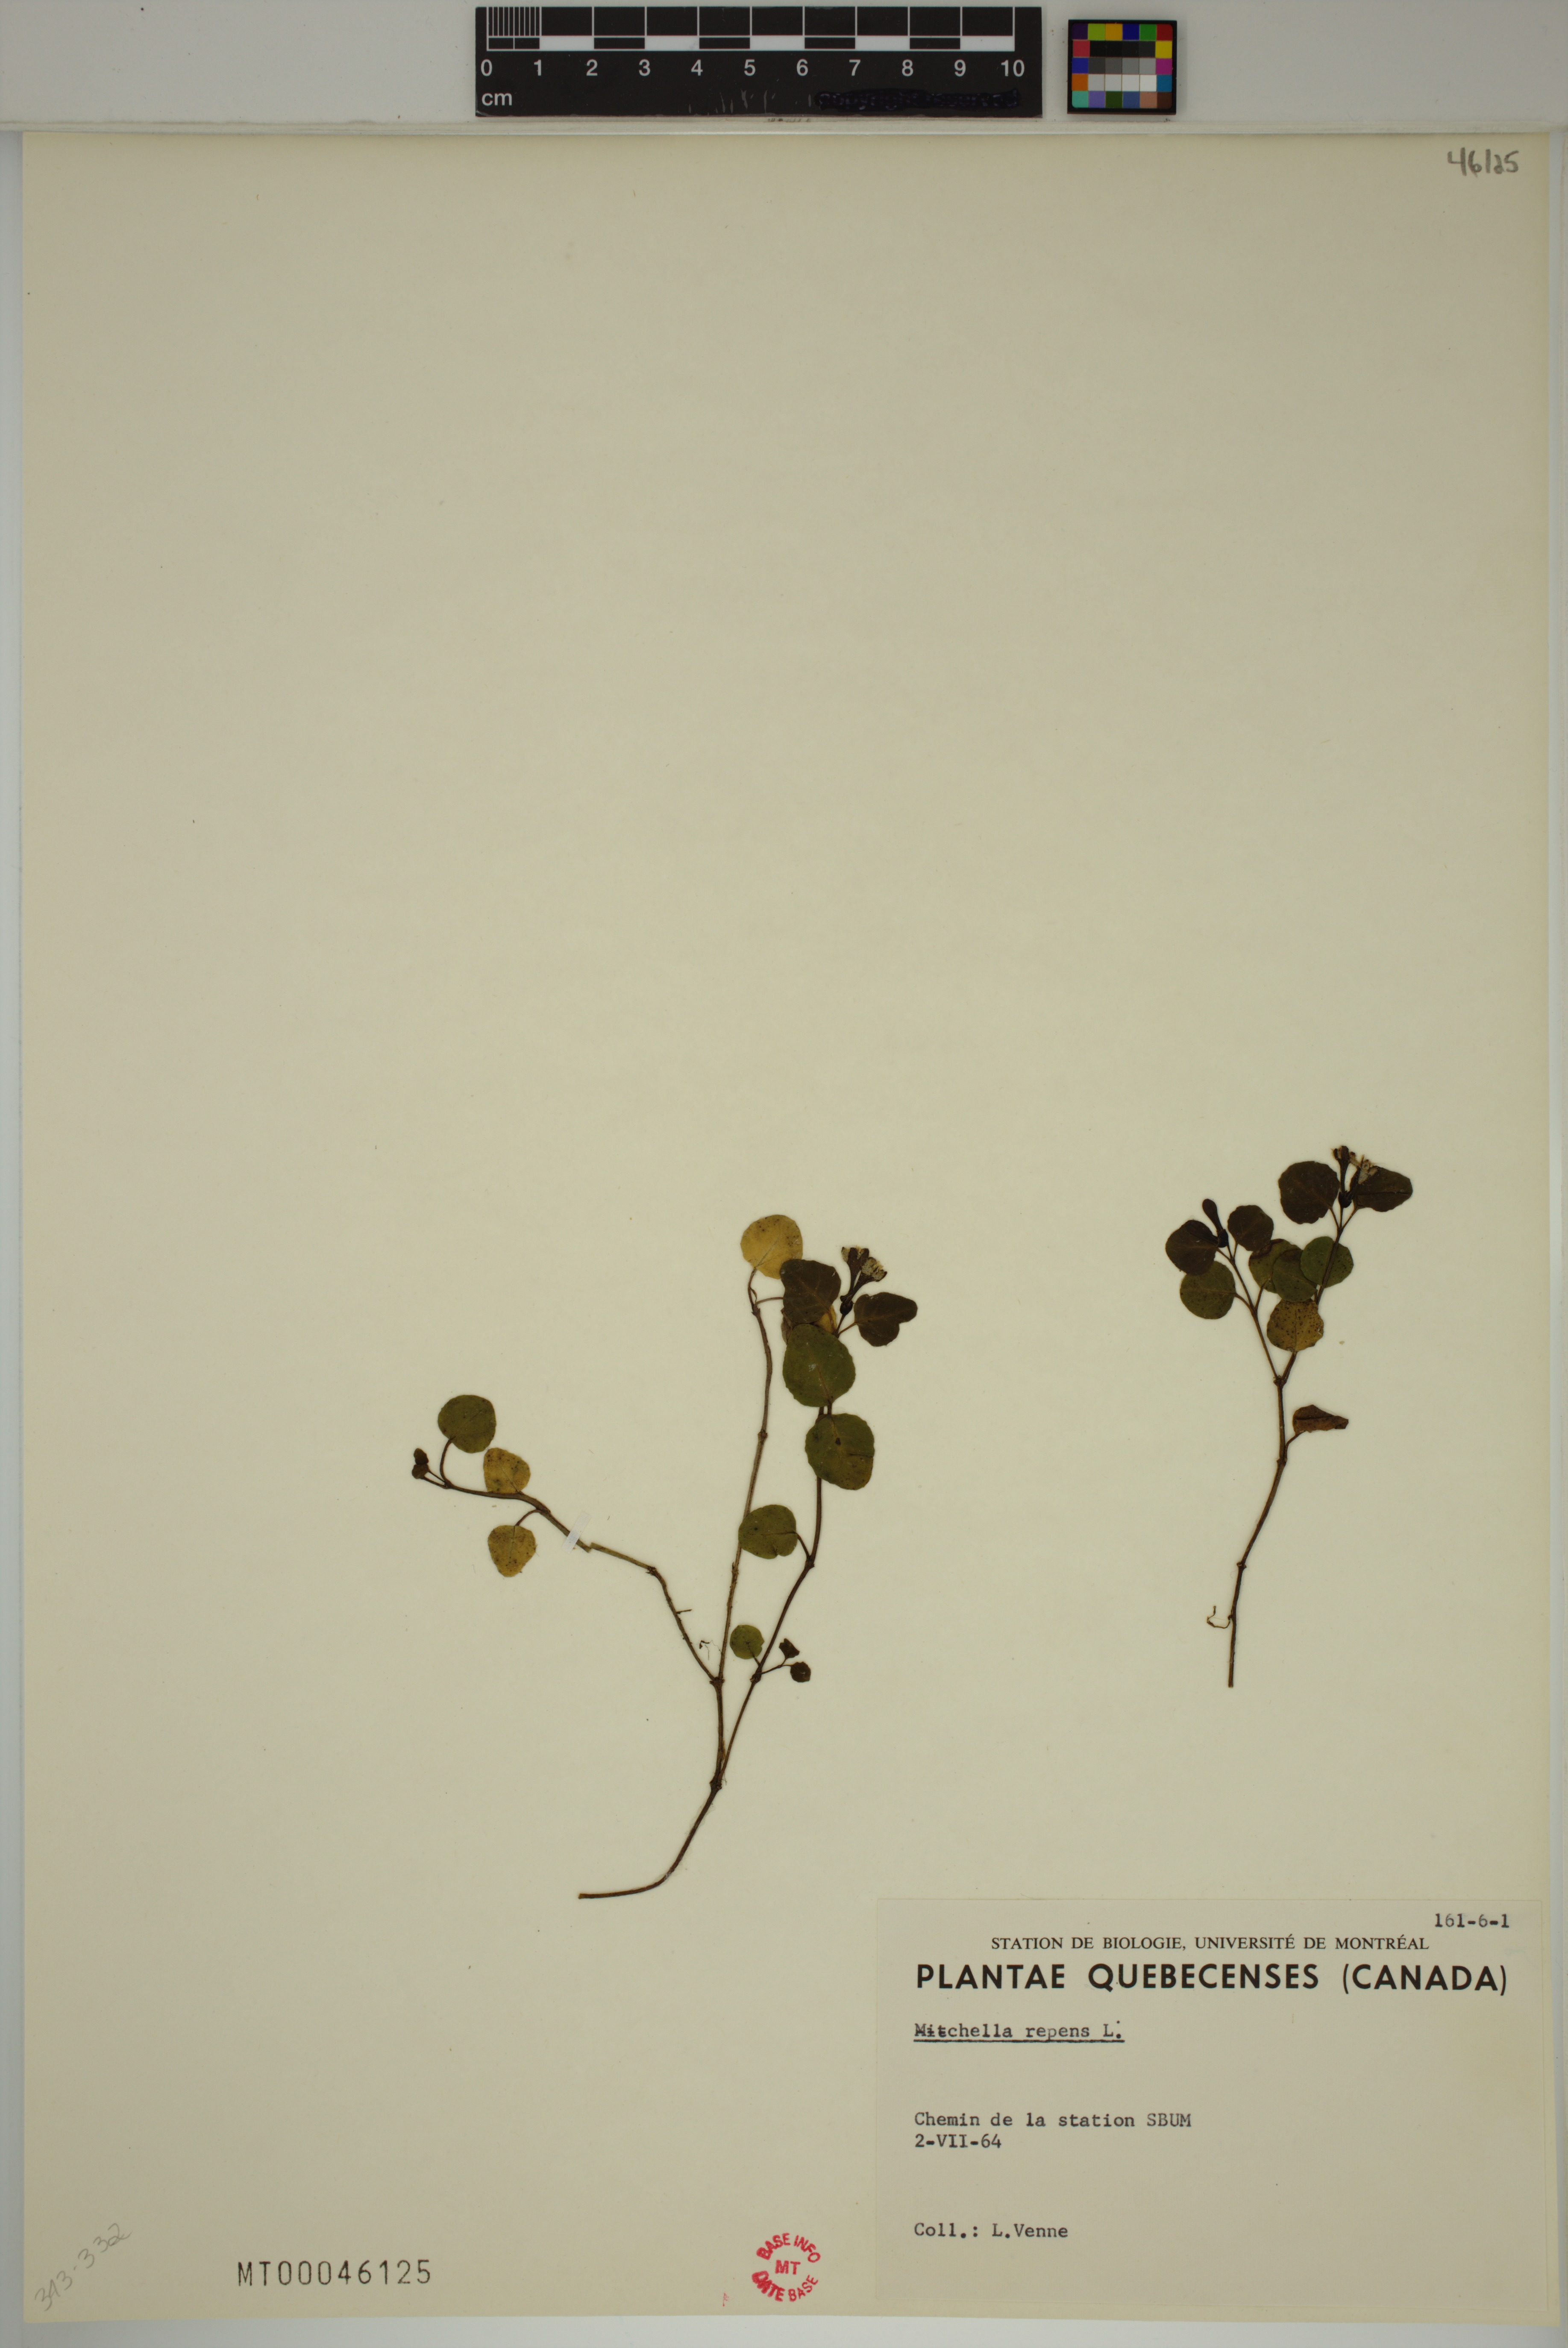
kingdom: Plantae
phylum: Tracheophyta
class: Magnoliopsida
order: Gentianales
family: Rubiaceae
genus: Mitchella
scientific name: Mitchella repens
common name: Partridge-berry
